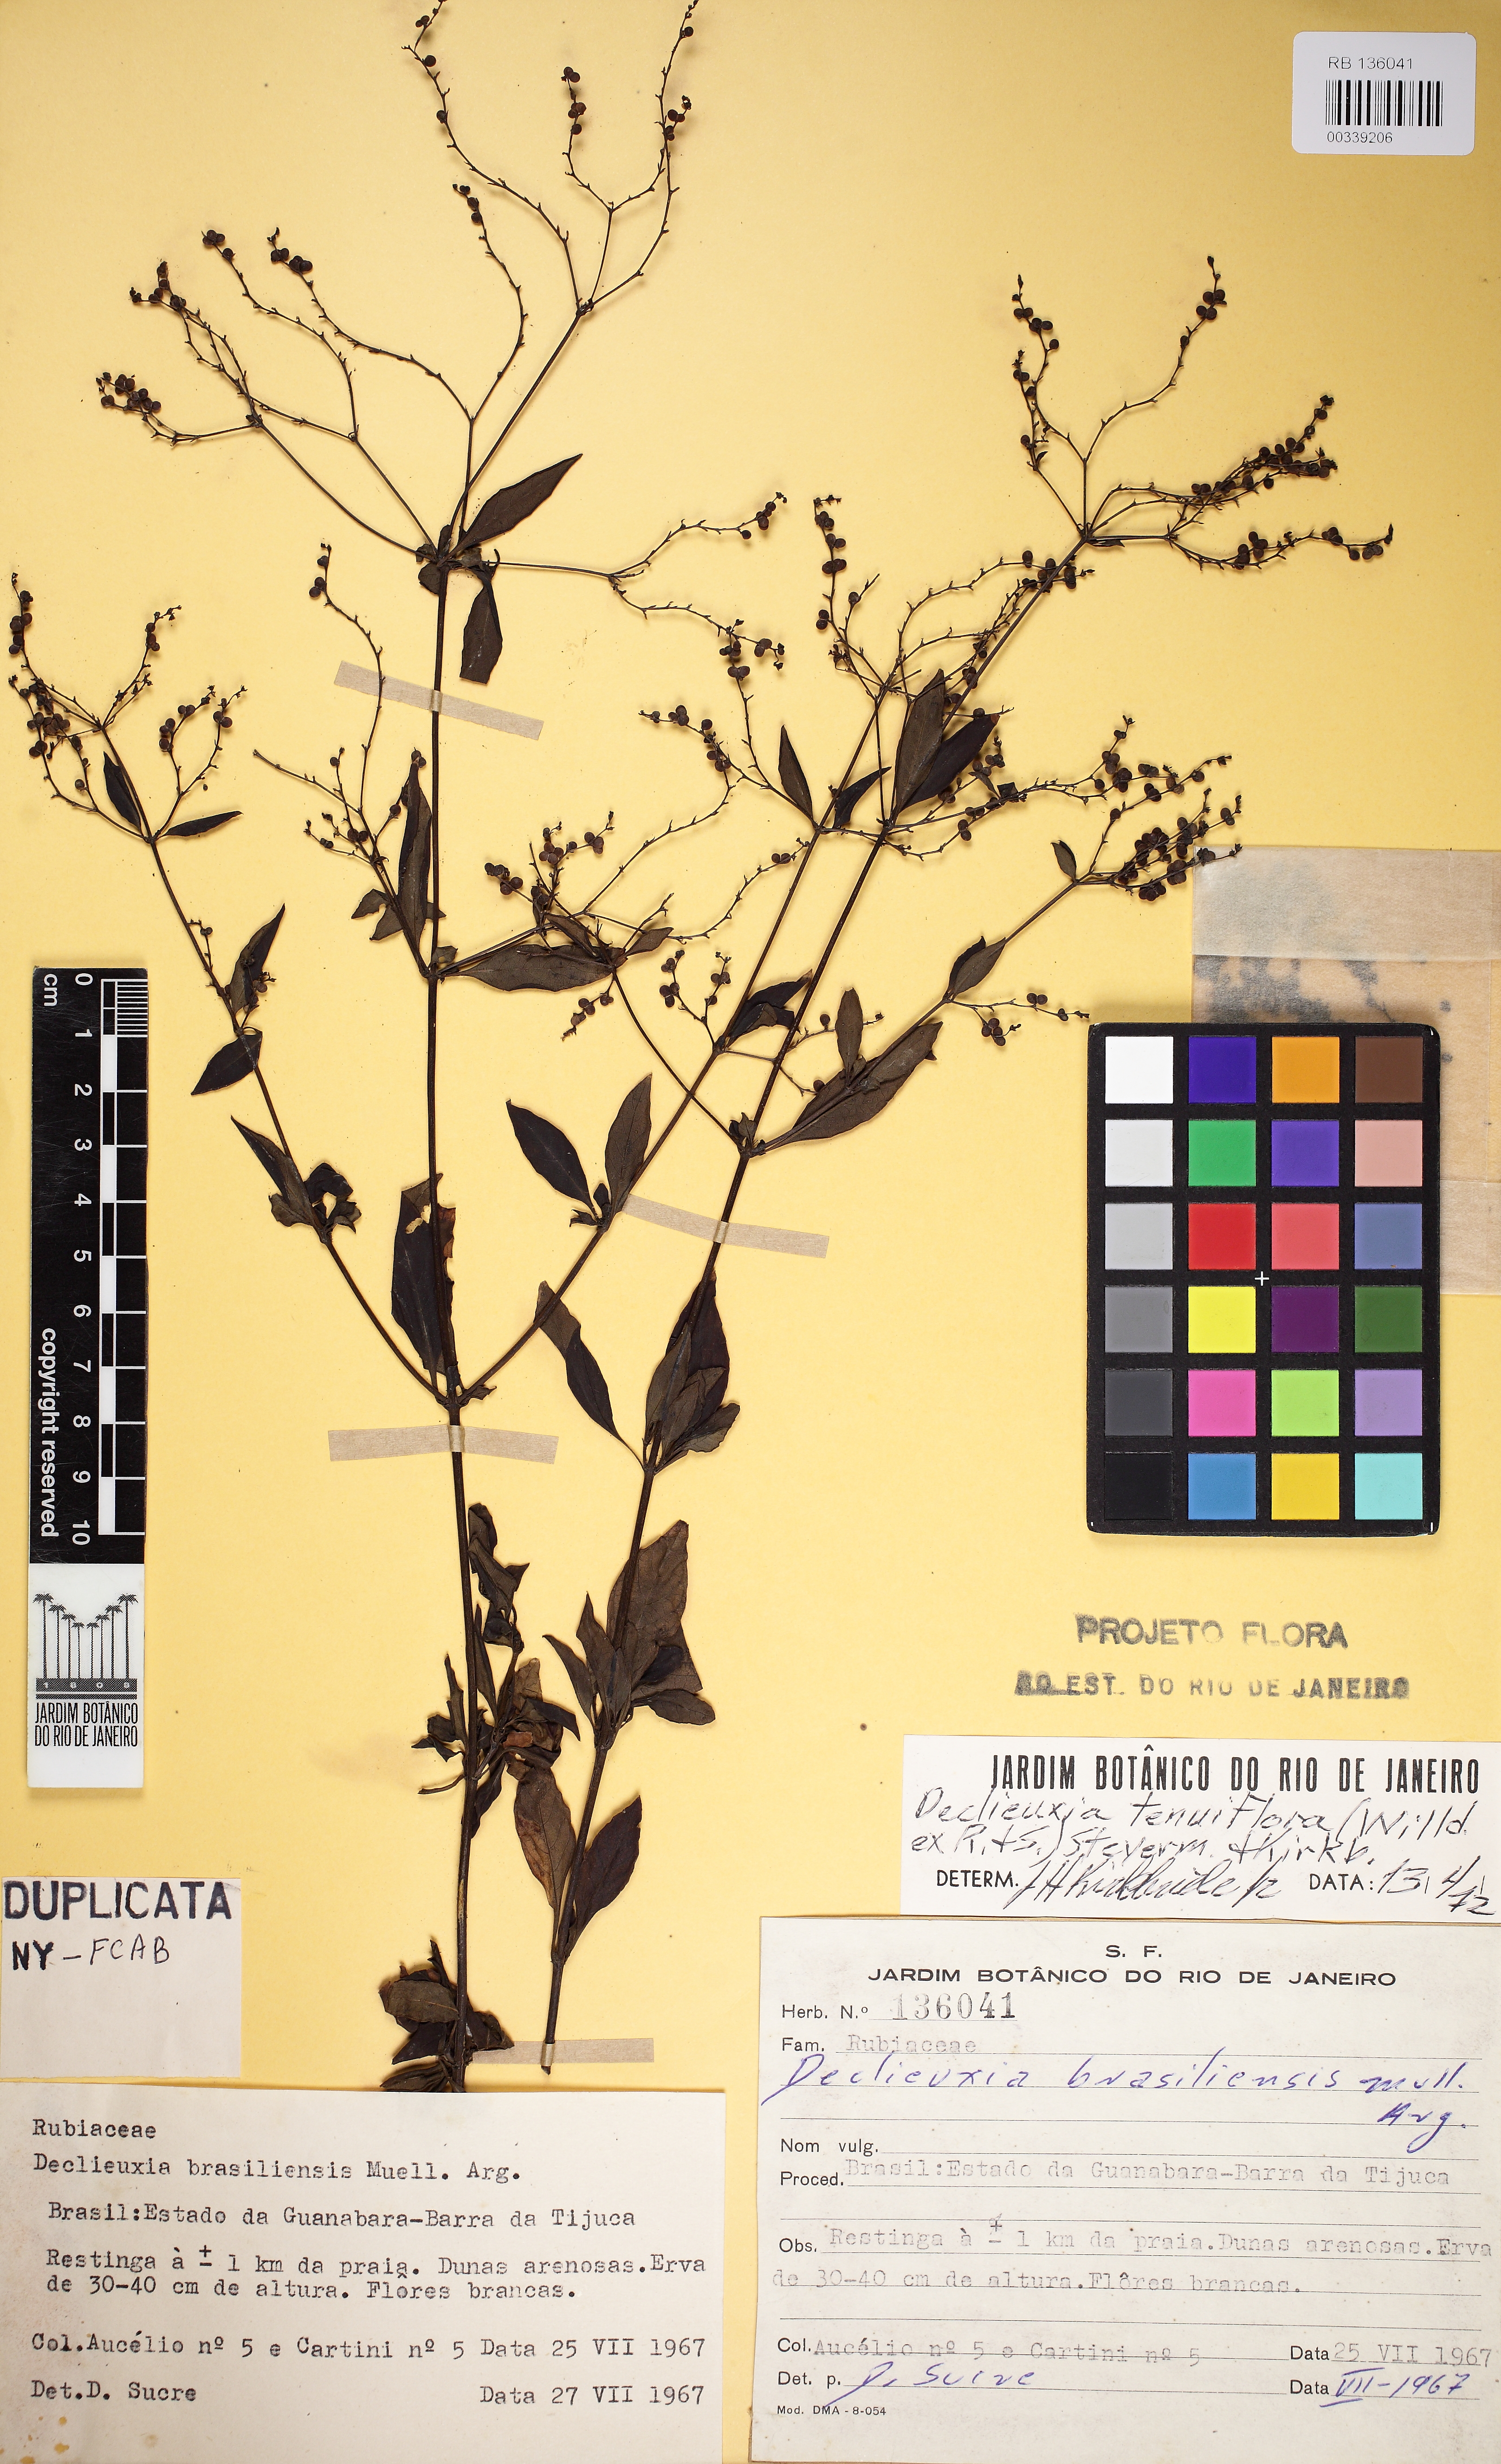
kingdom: Plantae
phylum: Tracheophyta
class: Magnoliopsida
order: Gentianales
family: Rubiaceae
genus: Declieuxia
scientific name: Declieuxia tenuiflora
